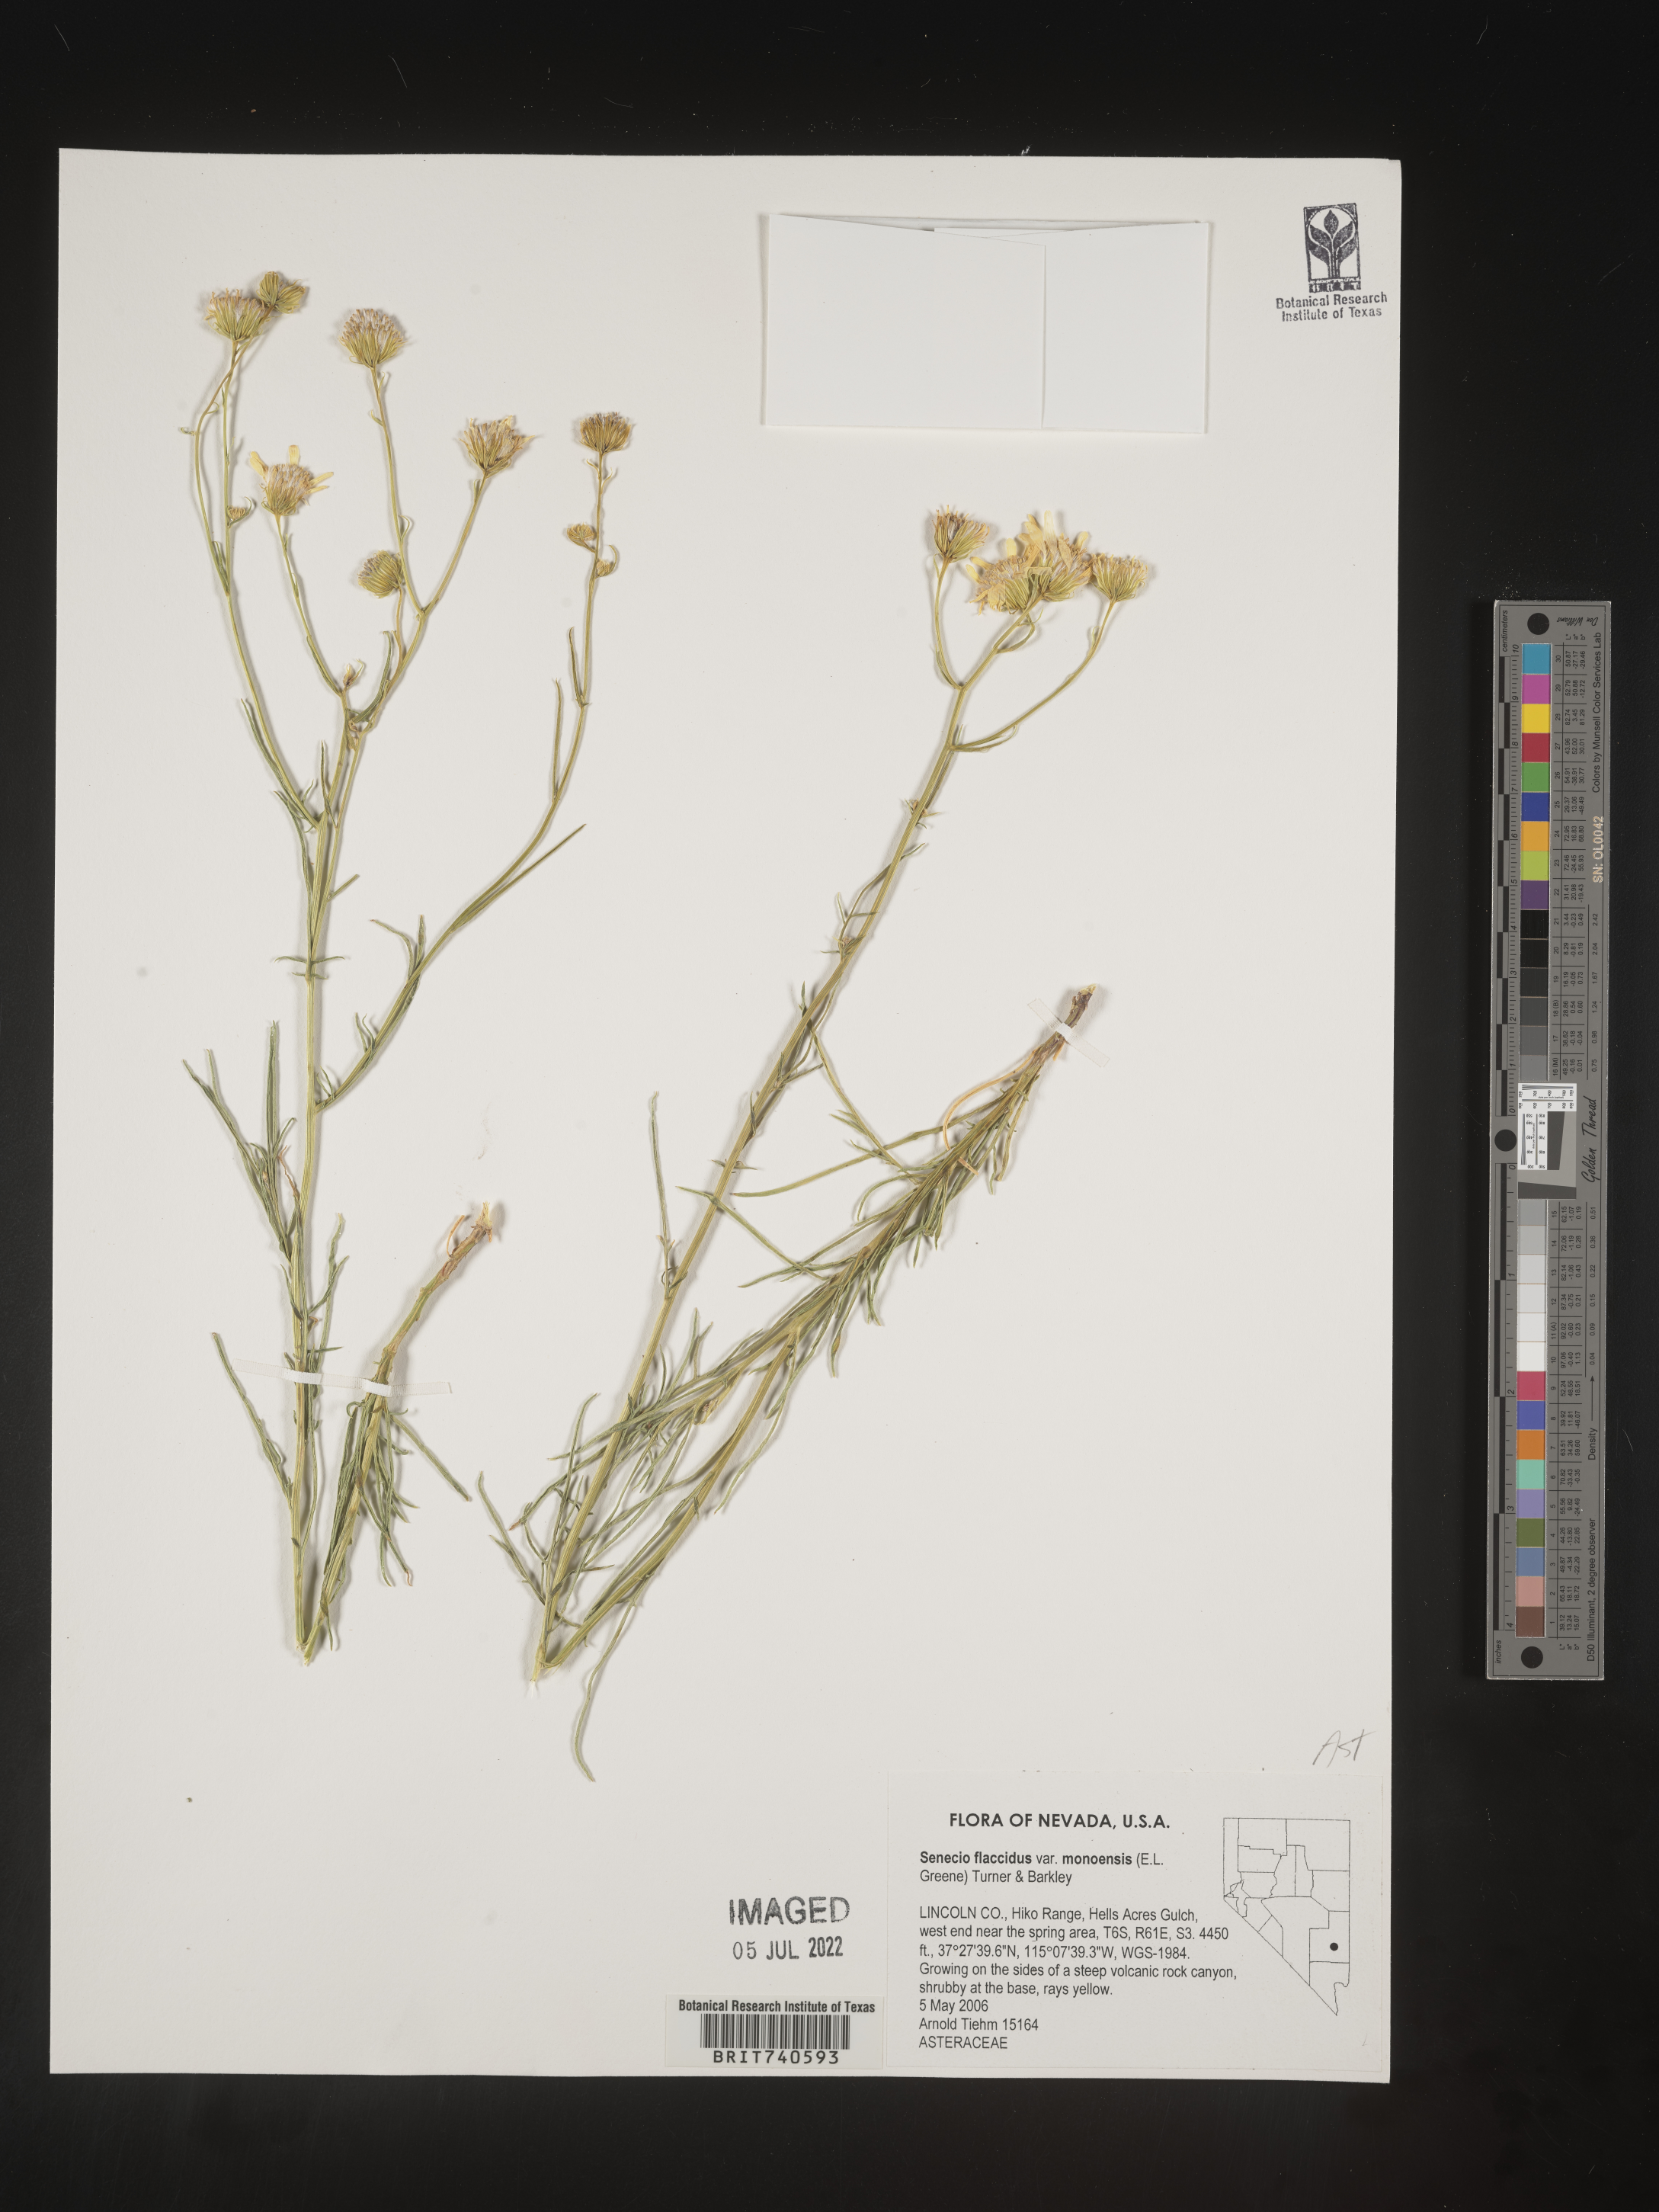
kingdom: Plantae
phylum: Tracheophyta
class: Magnoliopsida
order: Asterales
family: Asteraceae
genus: Senecio
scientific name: Senecio flaccidus
